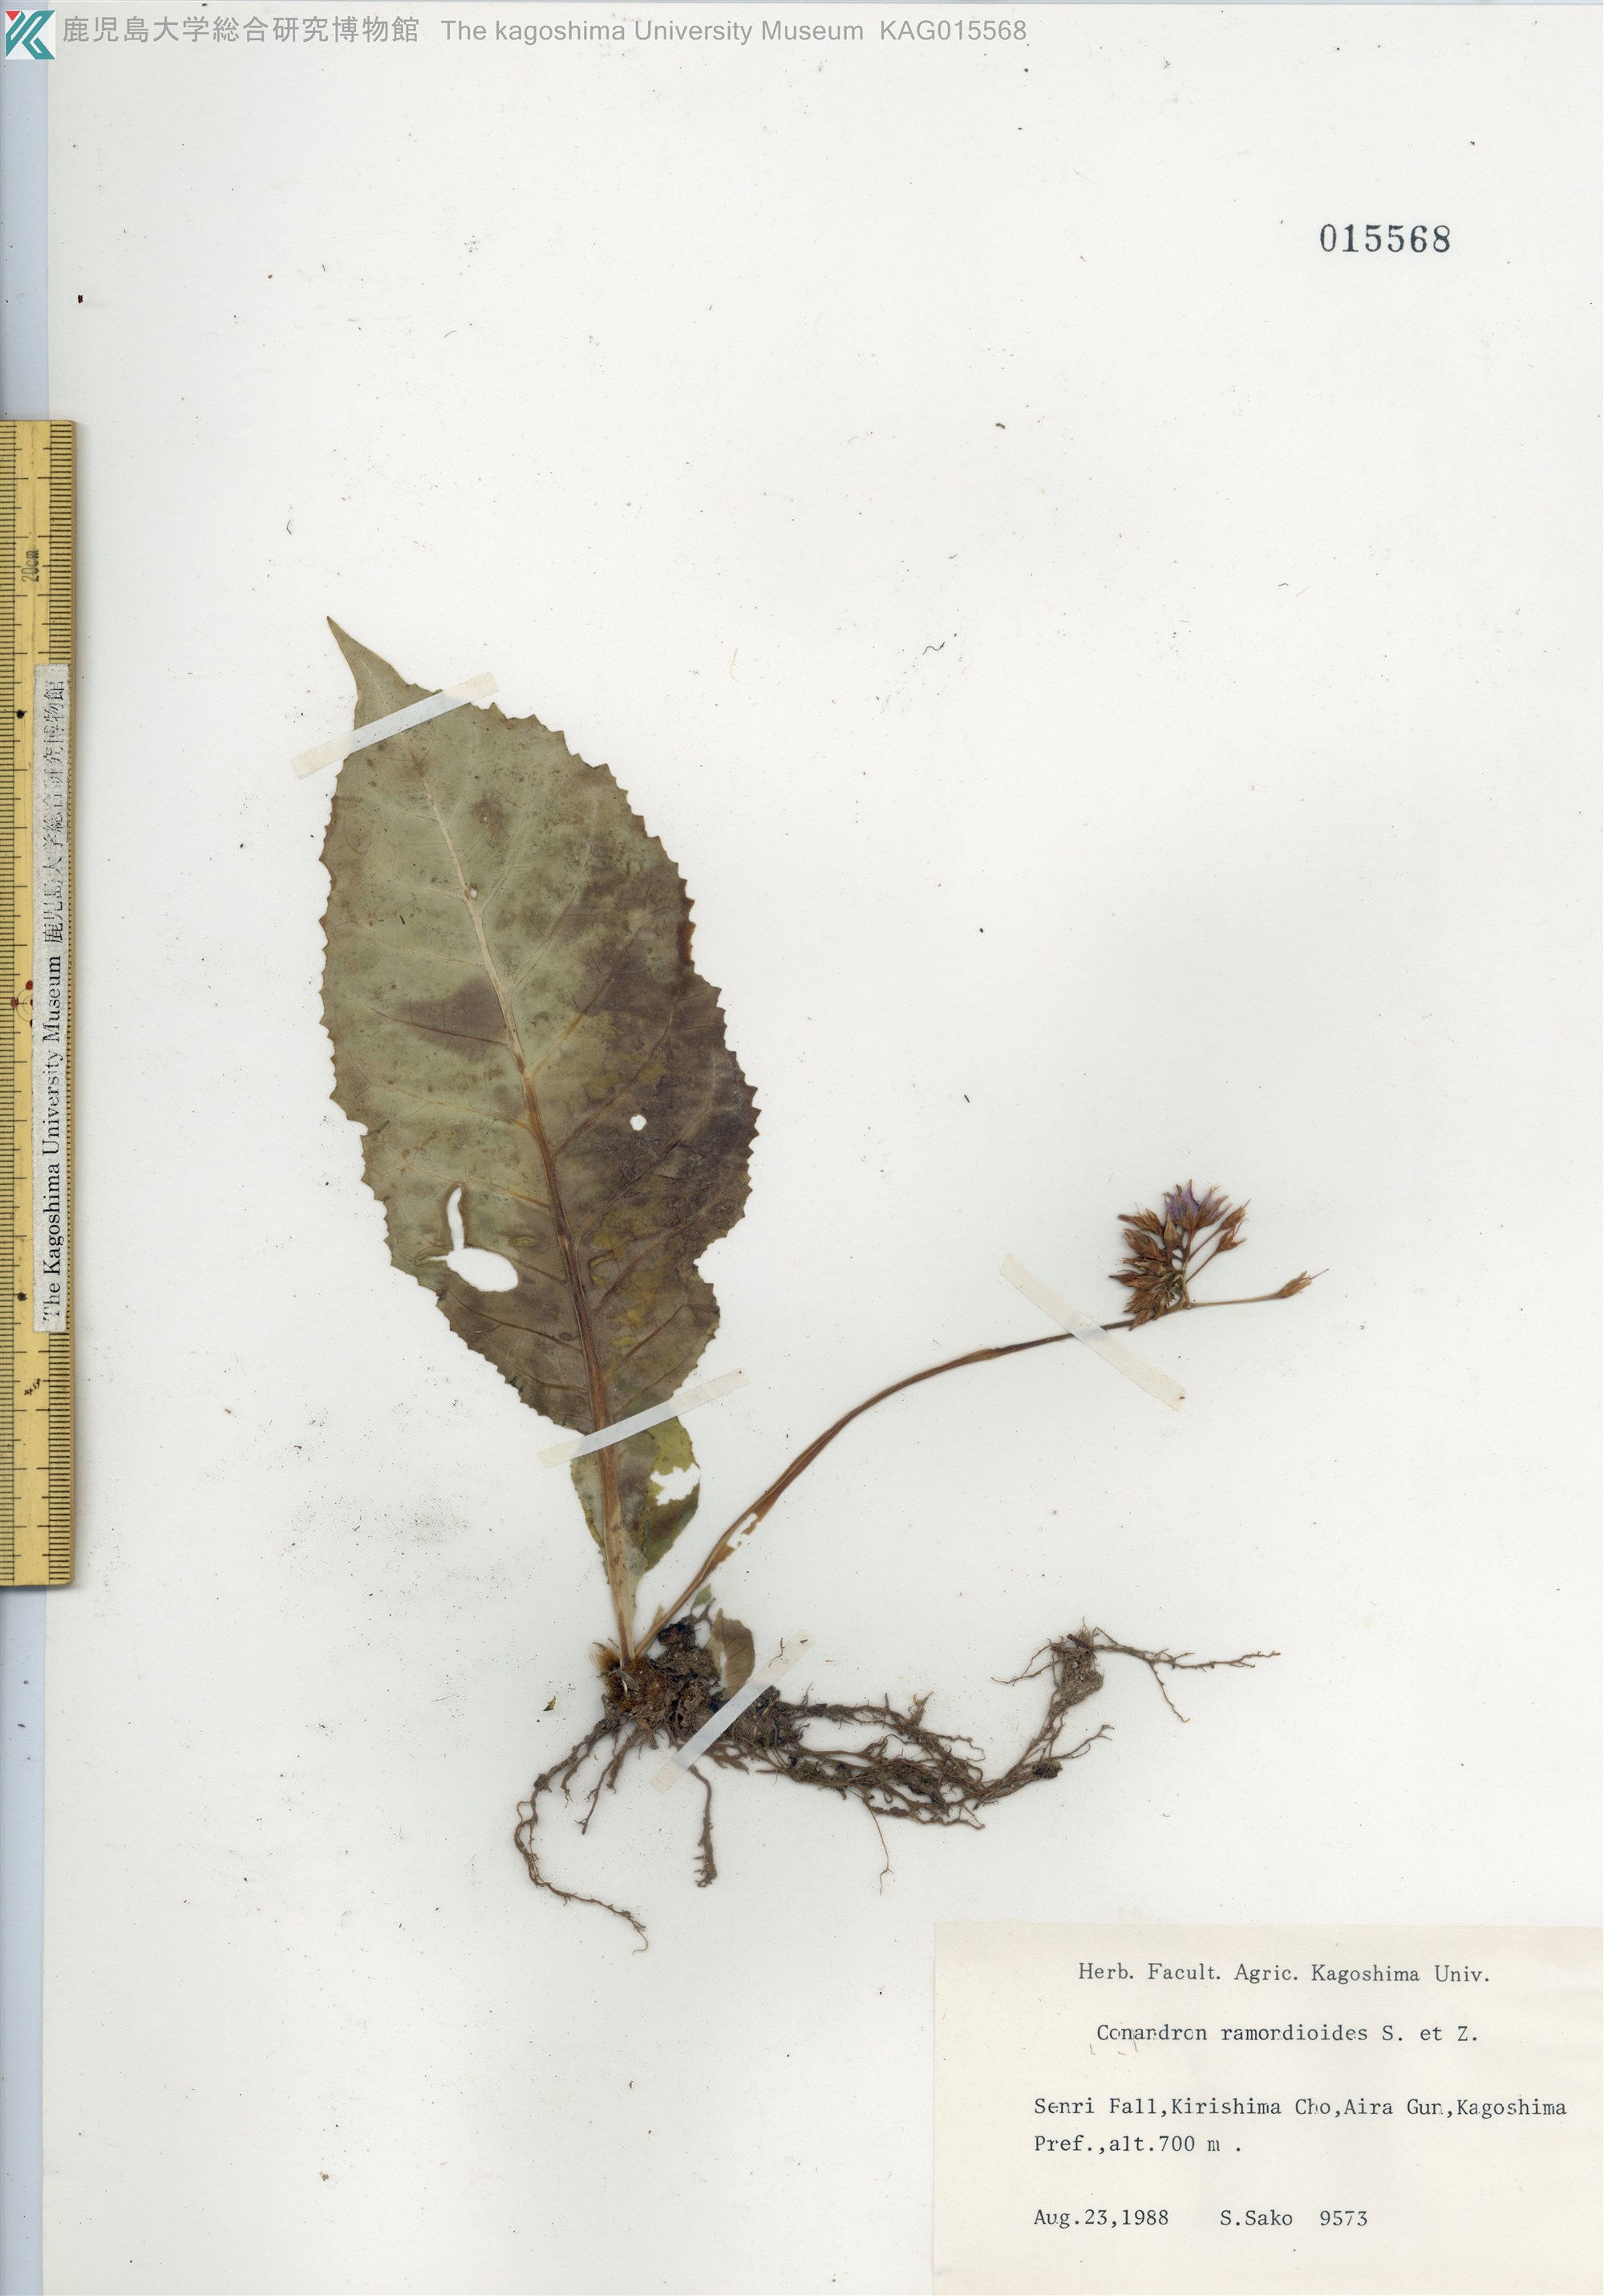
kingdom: Plantae
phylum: Tracheophyta
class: Magnoliopsida
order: Lamiales
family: Gesneriaceae
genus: Conandron
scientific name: Conandron ramondioides
